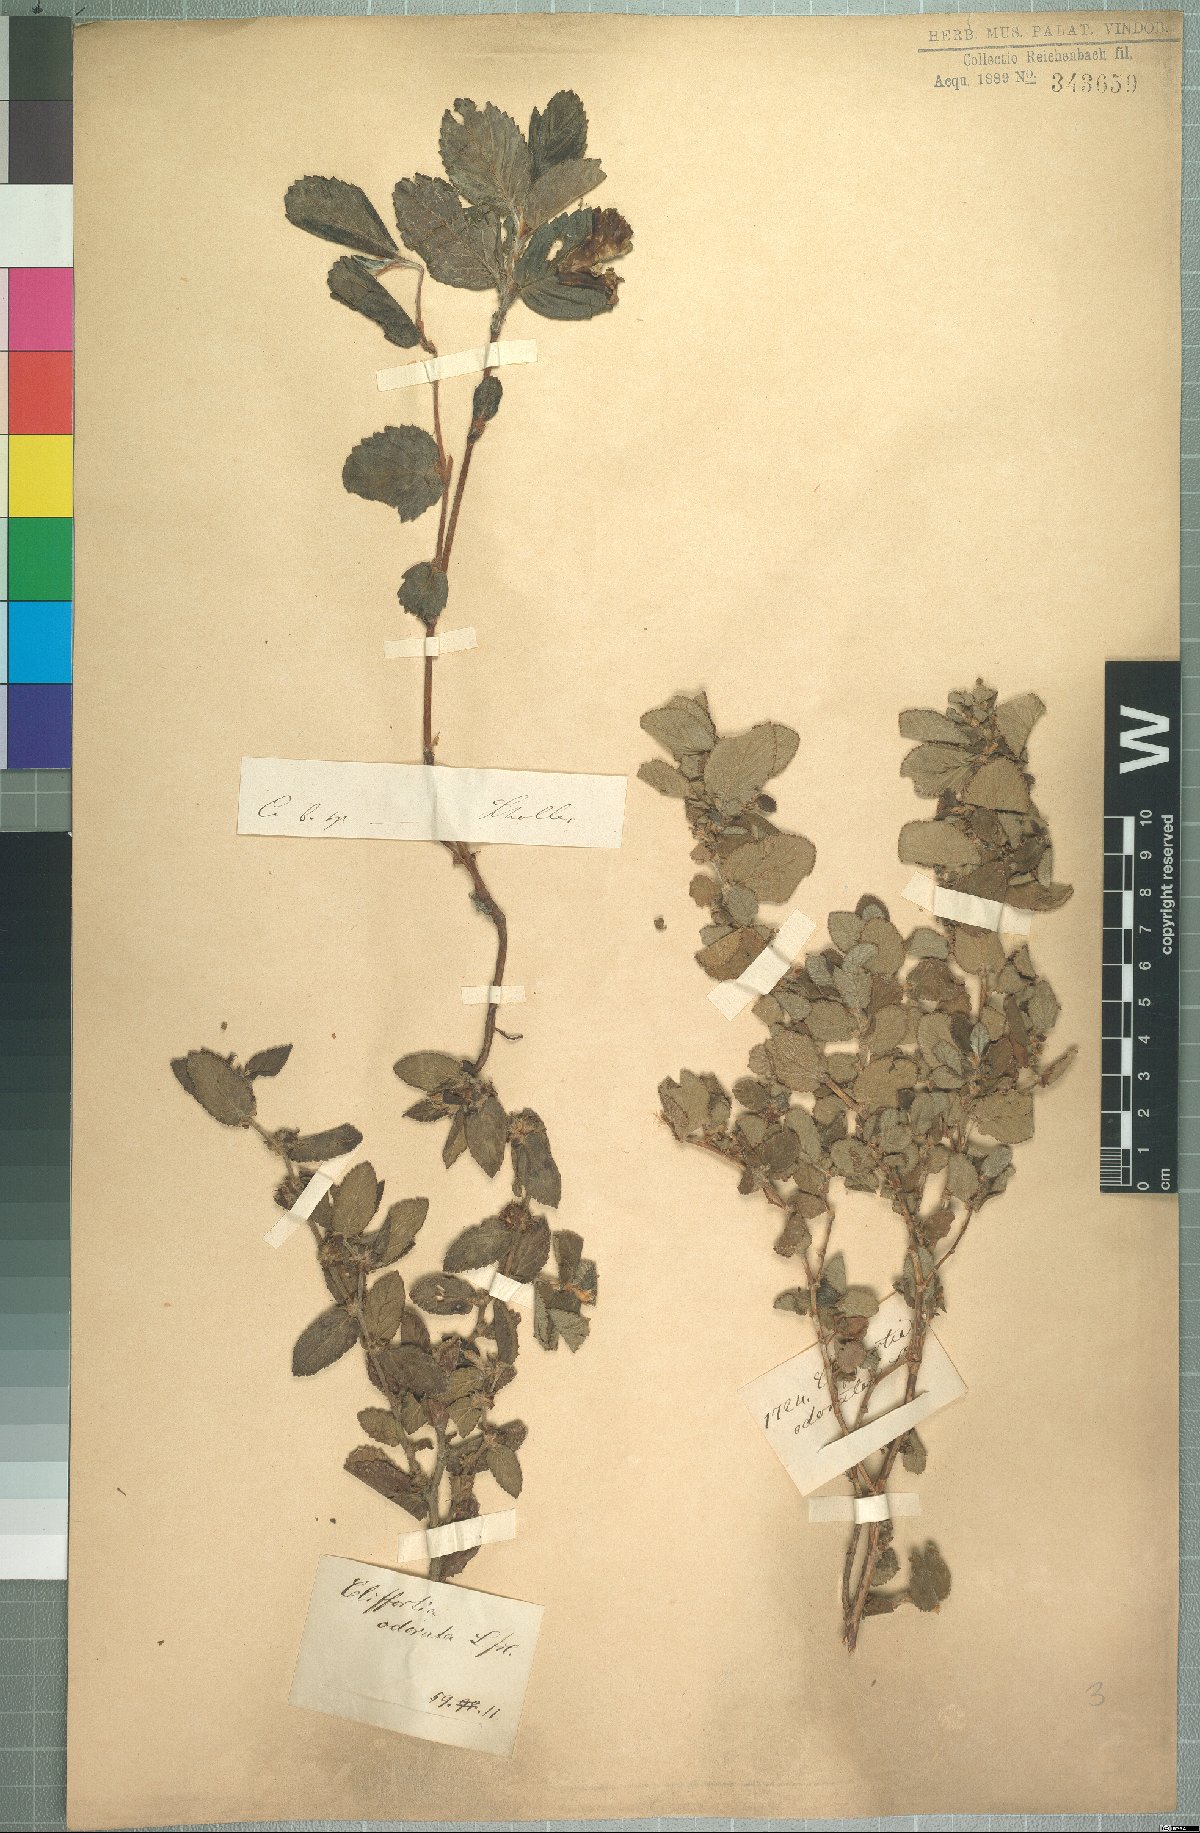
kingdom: Plantae
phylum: Tracheophyta
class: Magnoliopsida
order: Rosales
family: Rosaceae
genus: Cliffortia
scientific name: Cliffortia odorata
